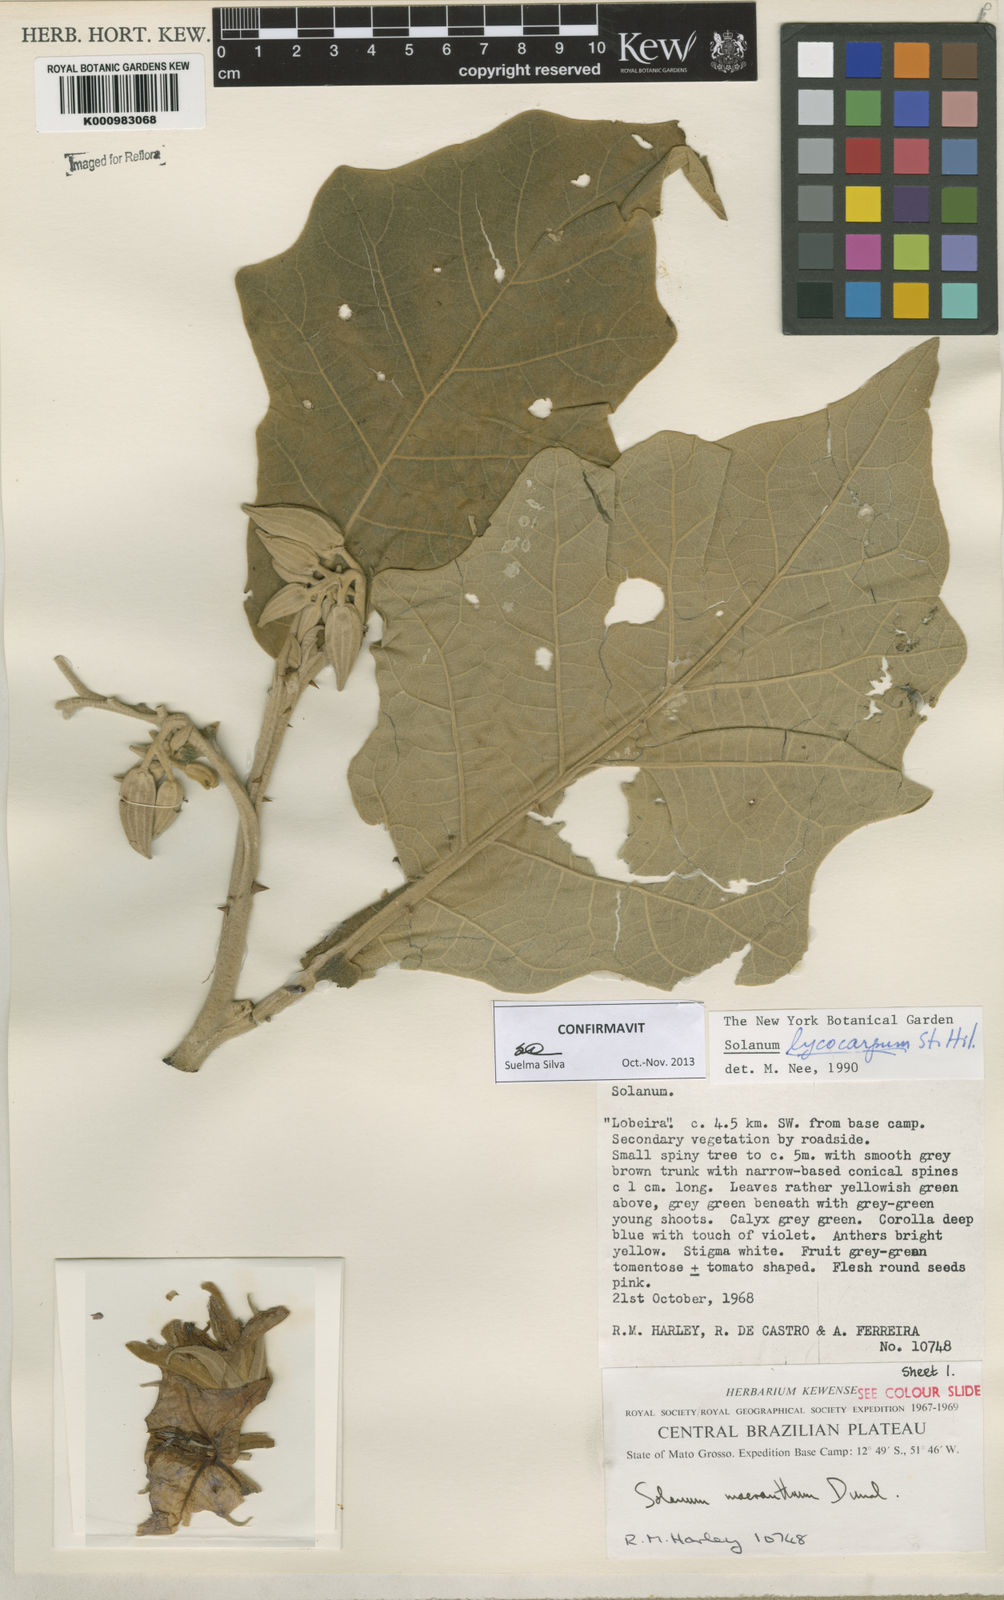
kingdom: Plantae
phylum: Tracheophyta
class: Magnoliopsida
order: Solanales
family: Solanaceae
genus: Solanum
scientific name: Solanum lycocarpum
